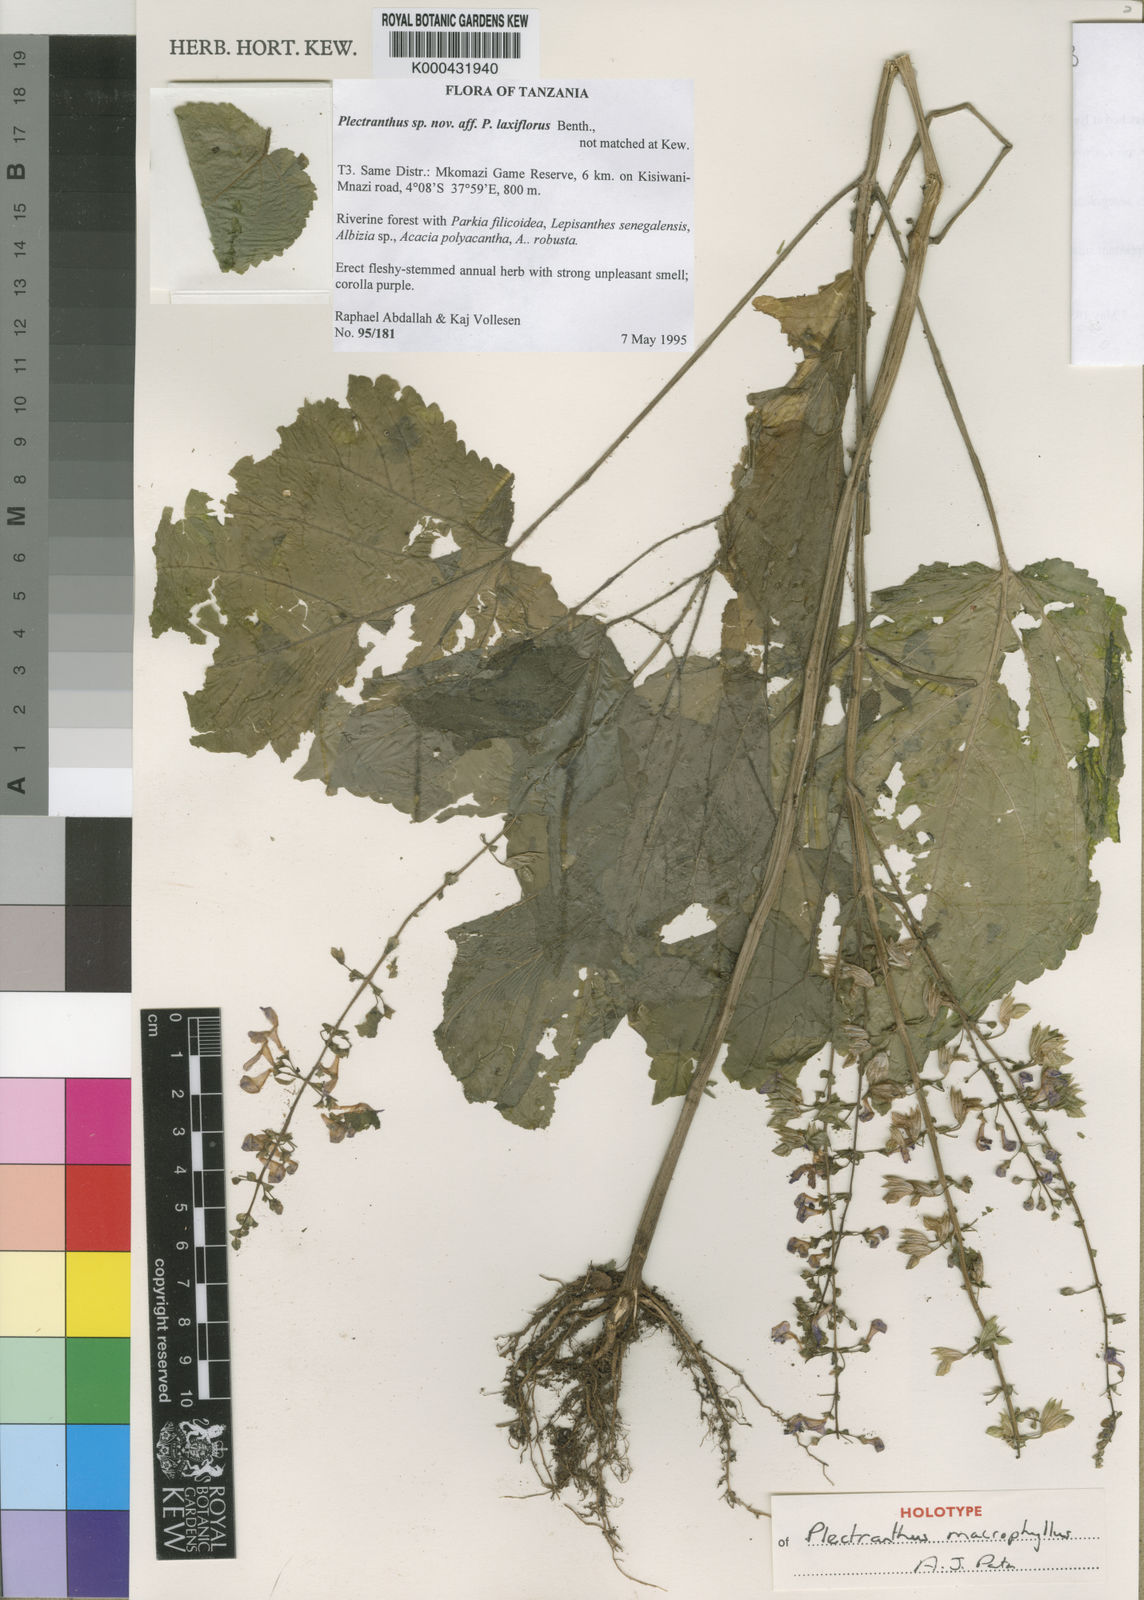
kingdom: Plantae
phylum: Tracheophyta
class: Magnoliopsida
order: Lamiales
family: Lamiaceae
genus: Equilabium
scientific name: Equilabium megafolium
